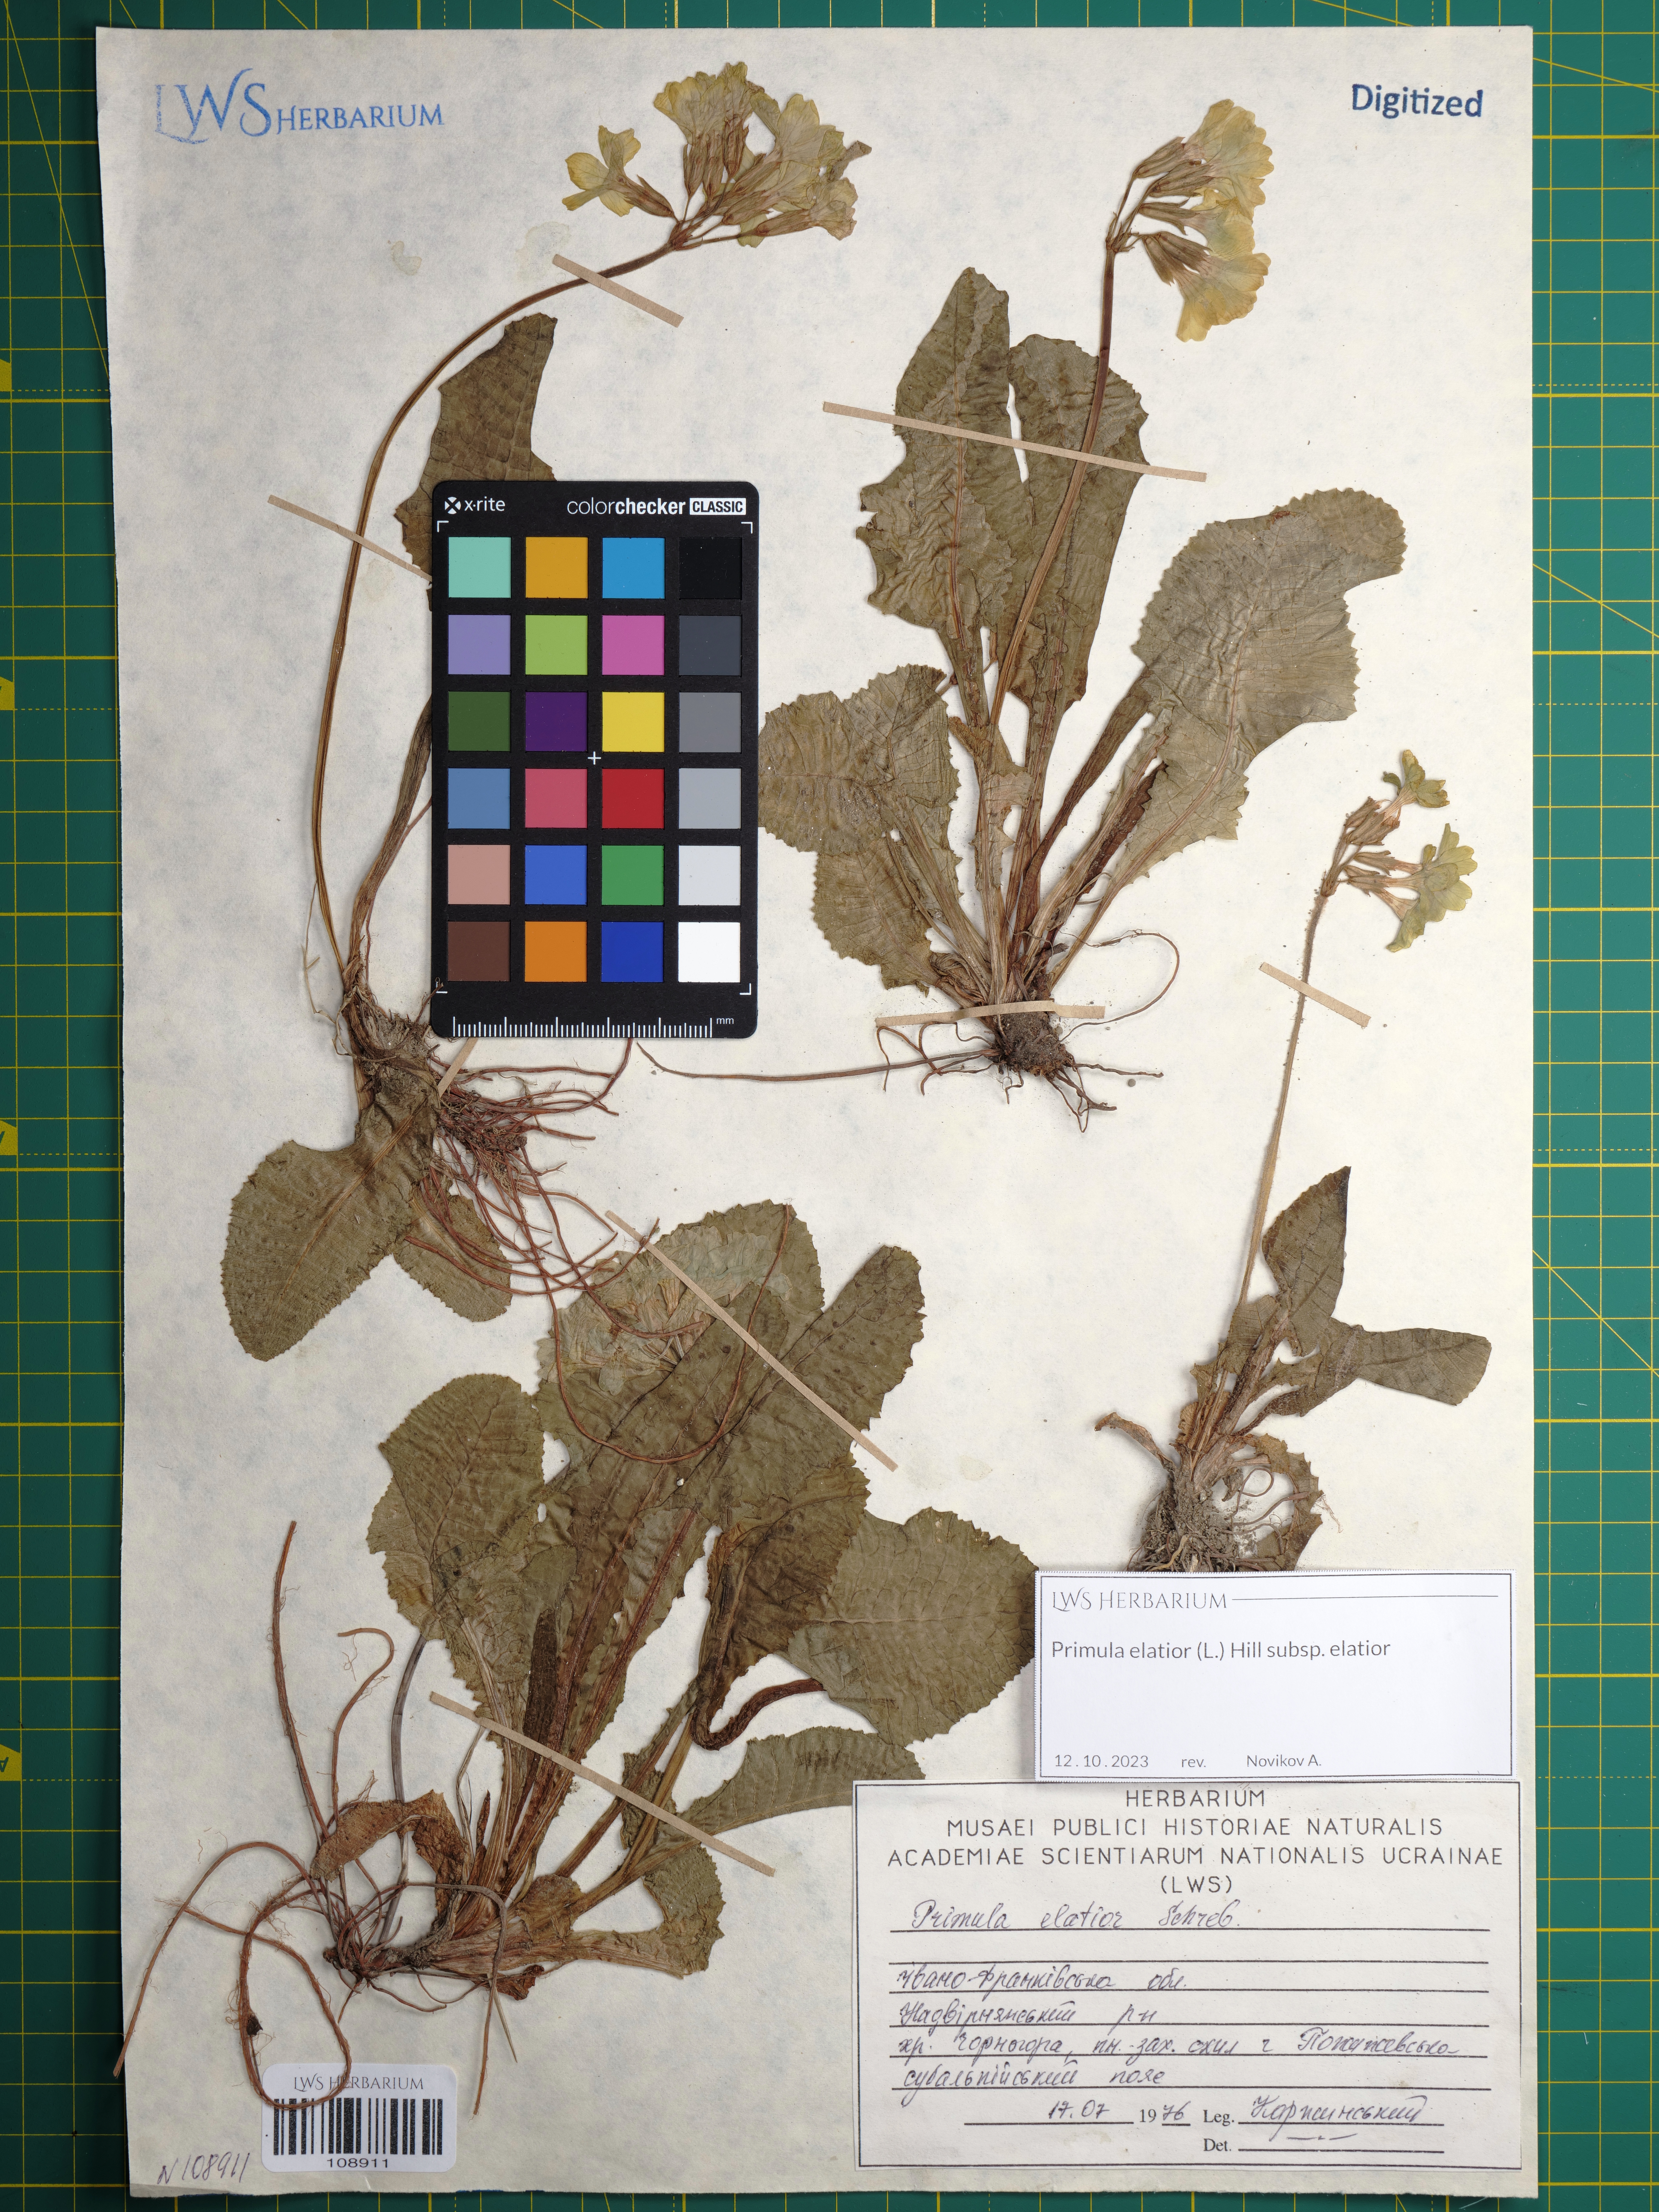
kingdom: Plantae
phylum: Tracheophyta
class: Magnoliopsida
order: Ericales
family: Primulaceae
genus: Primula
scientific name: Primula elatior
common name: Oxlip
